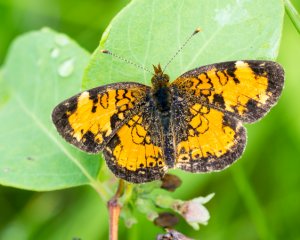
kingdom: Animalia
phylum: Arthropoda
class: Insecta
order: Lepidoptera
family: Nymphalidae
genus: Phyciodes
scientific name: Phyciodes tharos
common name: Northern Crescent
